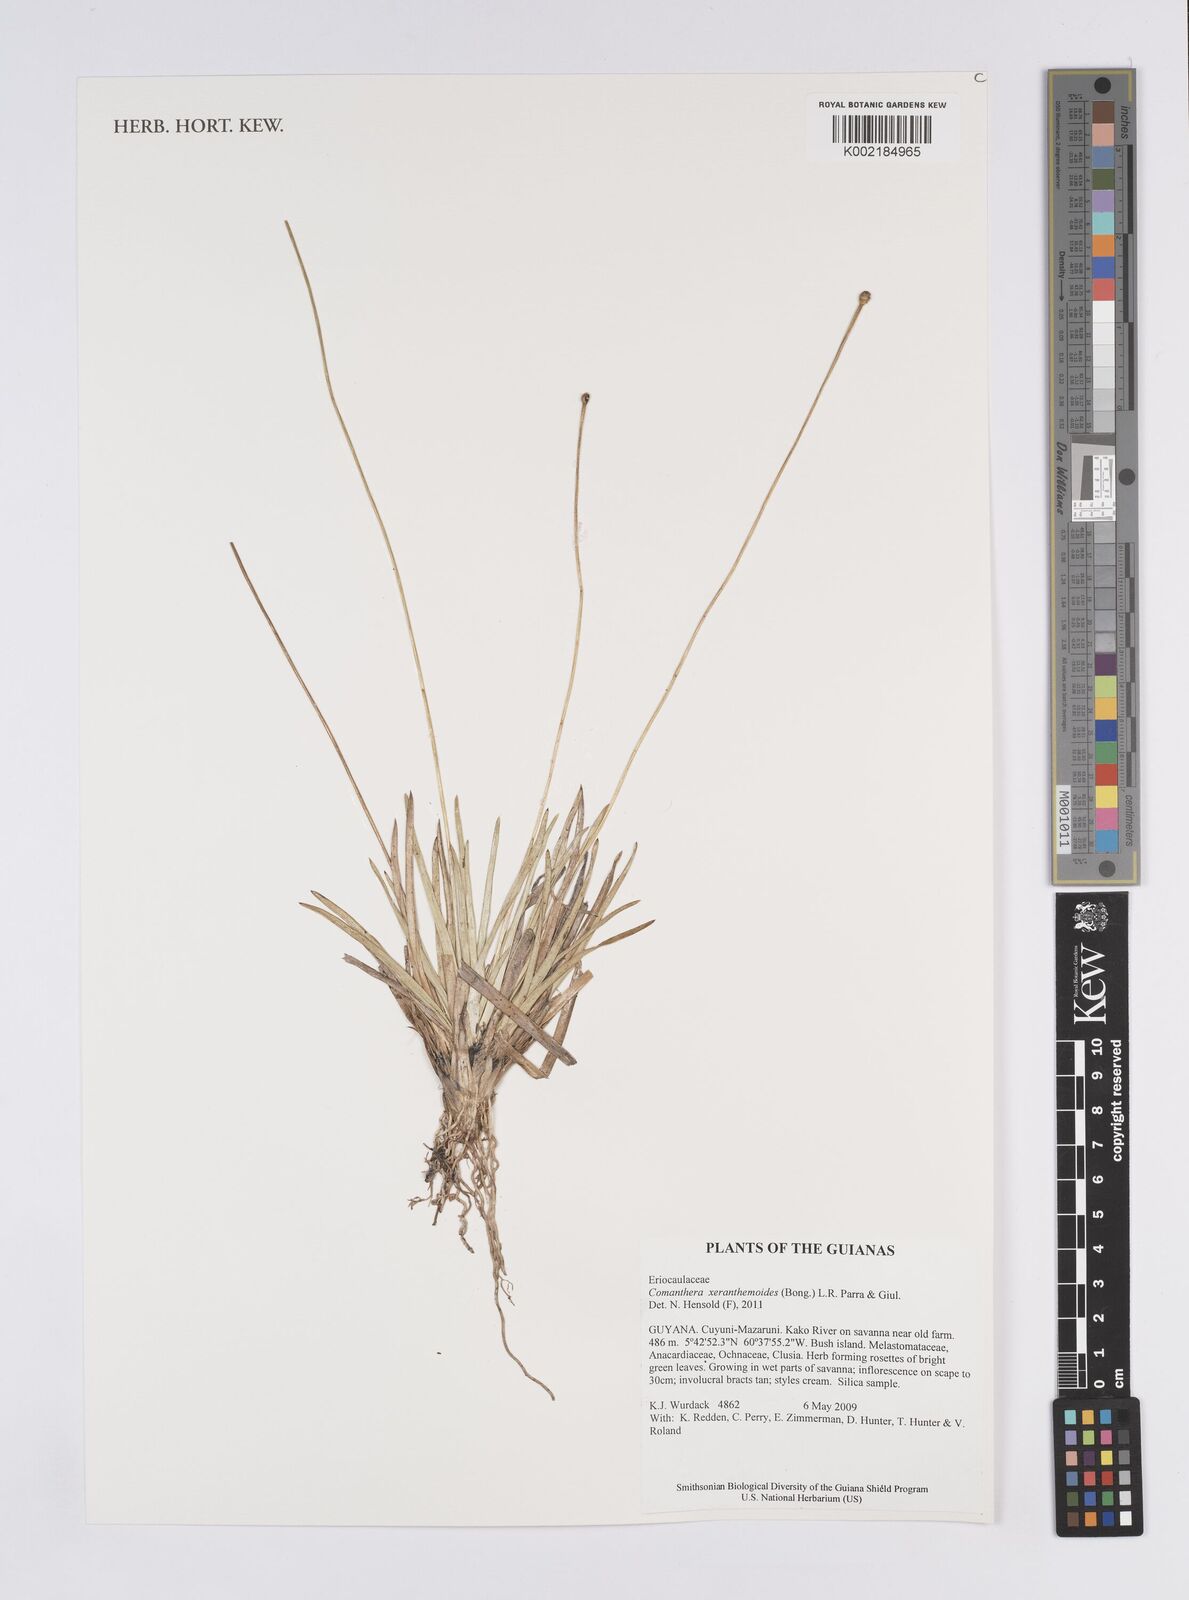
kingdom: Plantae
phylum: Tracheophyta
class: Liliopsida
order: Poales
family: Eriocaulaceae
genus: Comanthera
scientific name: Comanthera xeranthemoides
